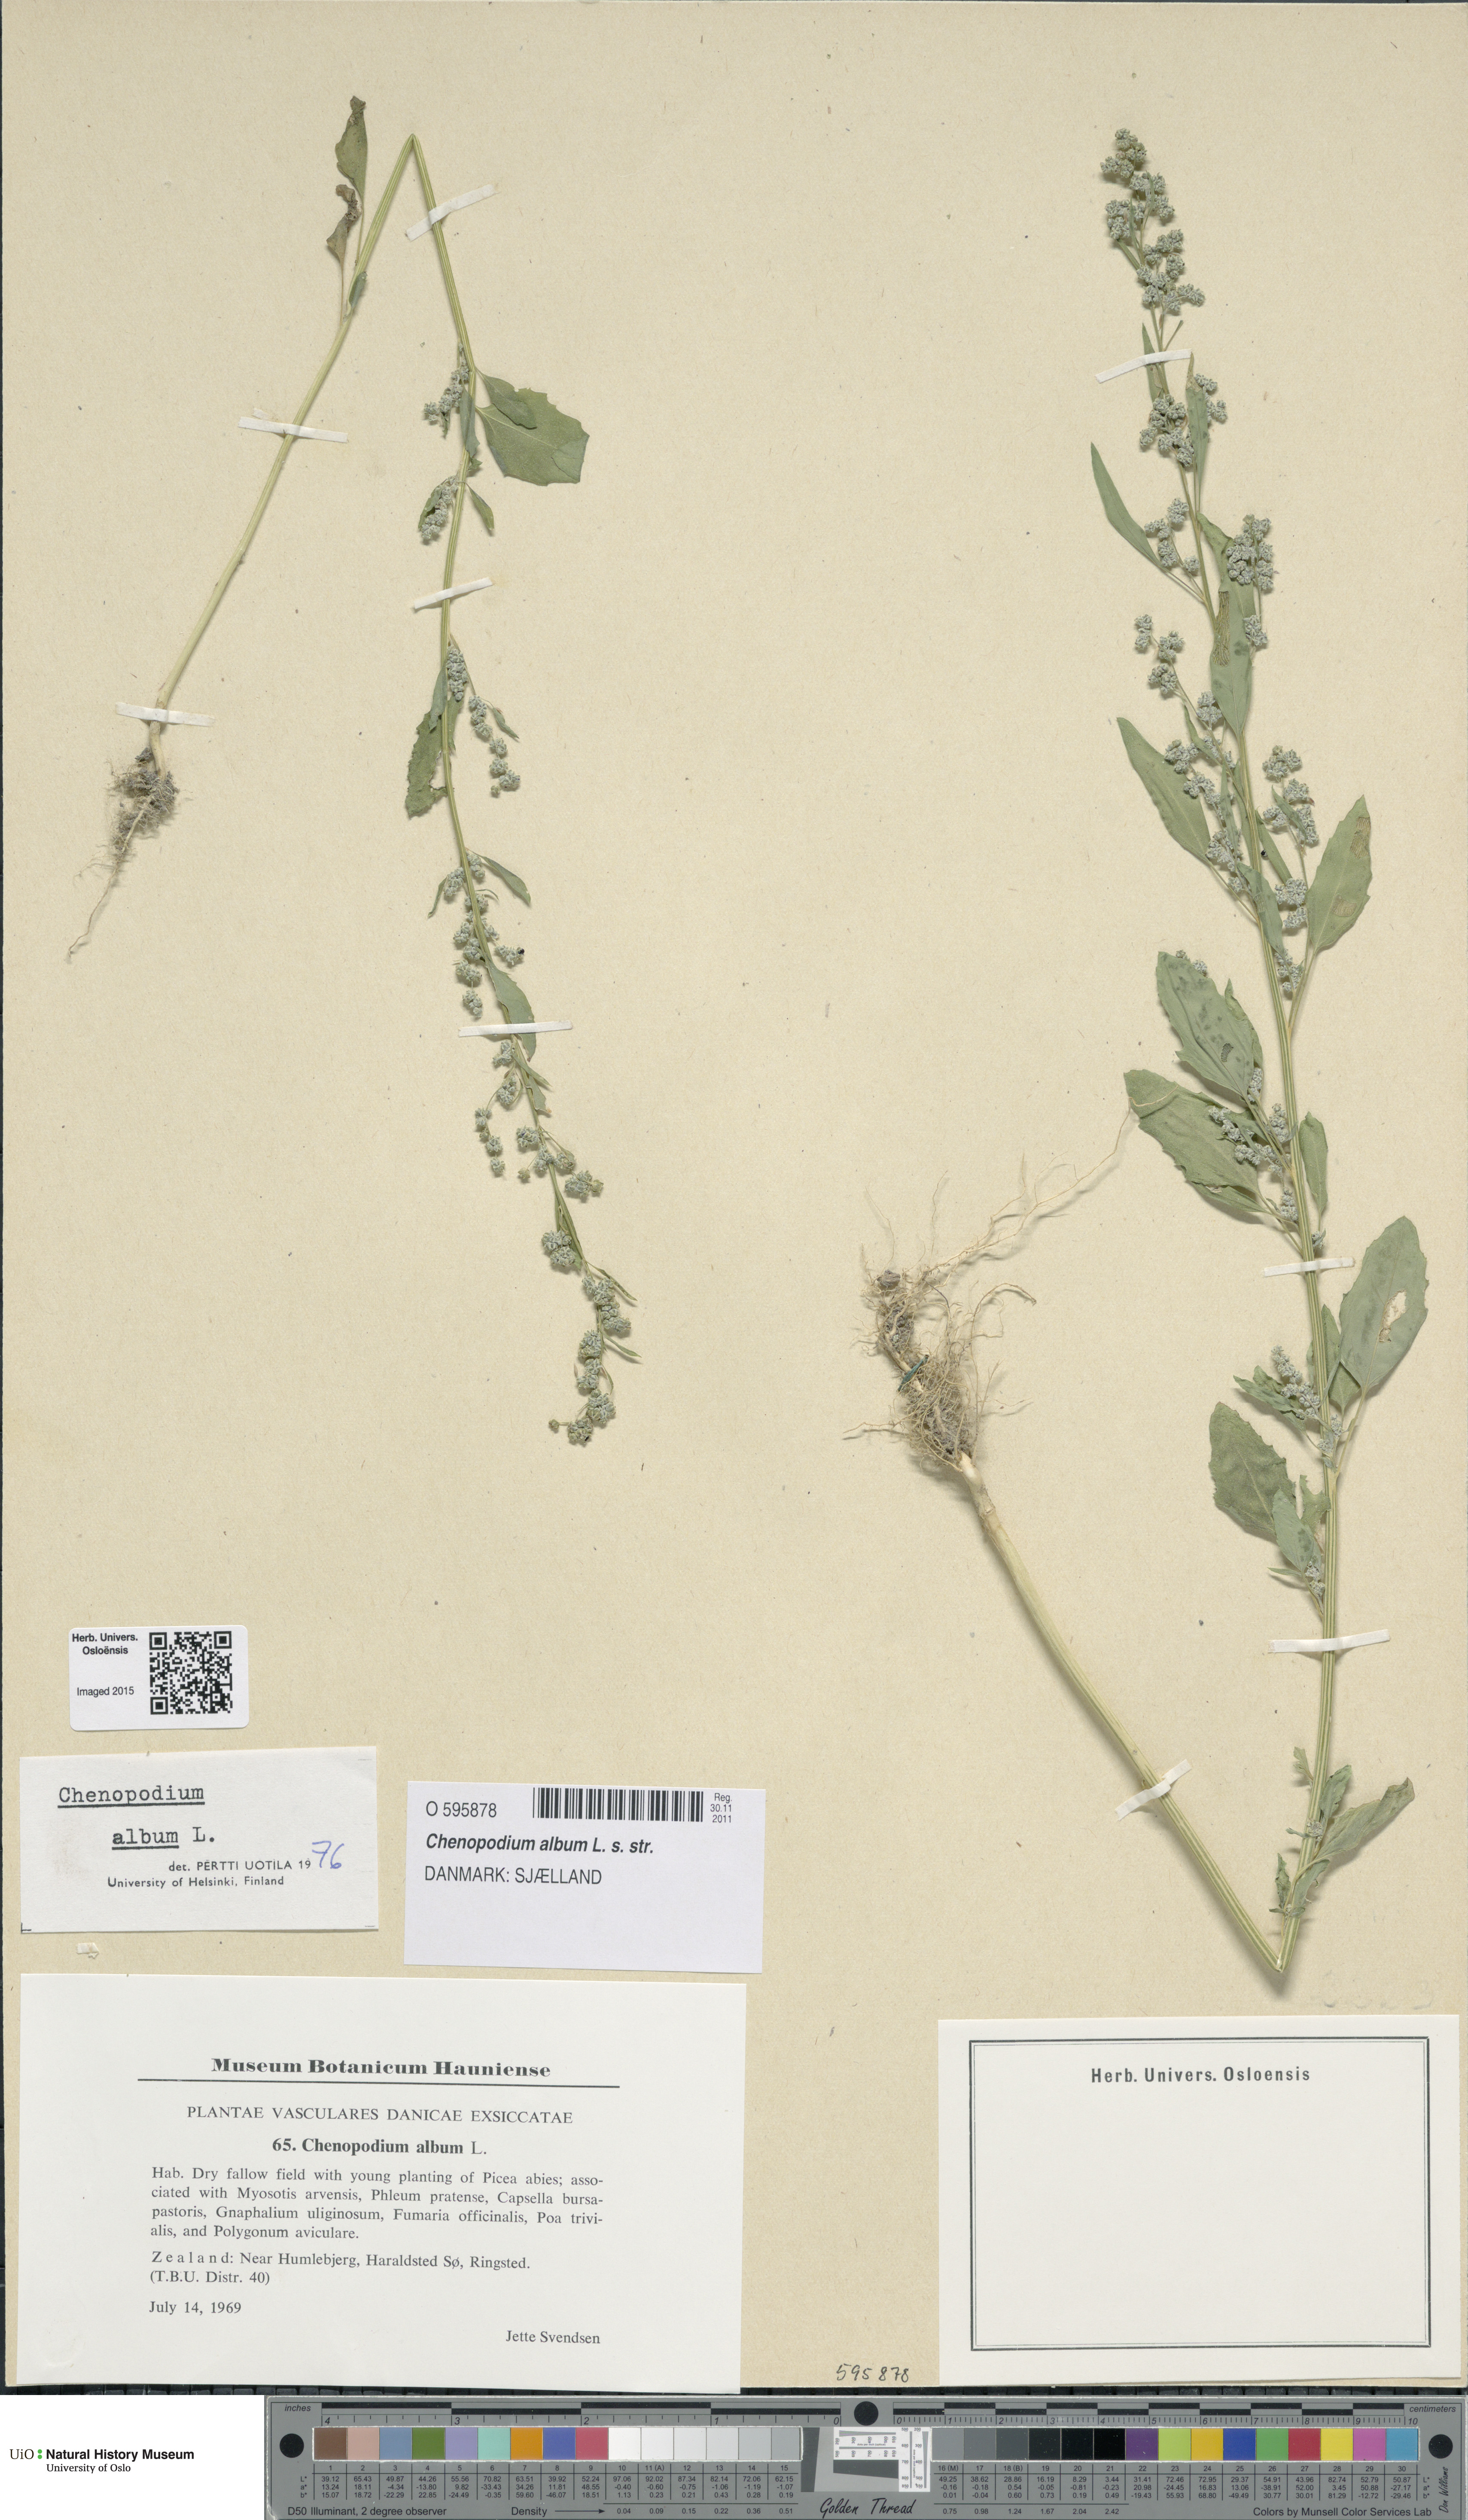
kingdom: Plantae
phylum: Tracheophyta
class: Magnoliopsida
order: Caryophyllales
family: Amaranthaceae
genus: Chenopodium
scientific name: Chenopodium album
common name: Fat-hen
